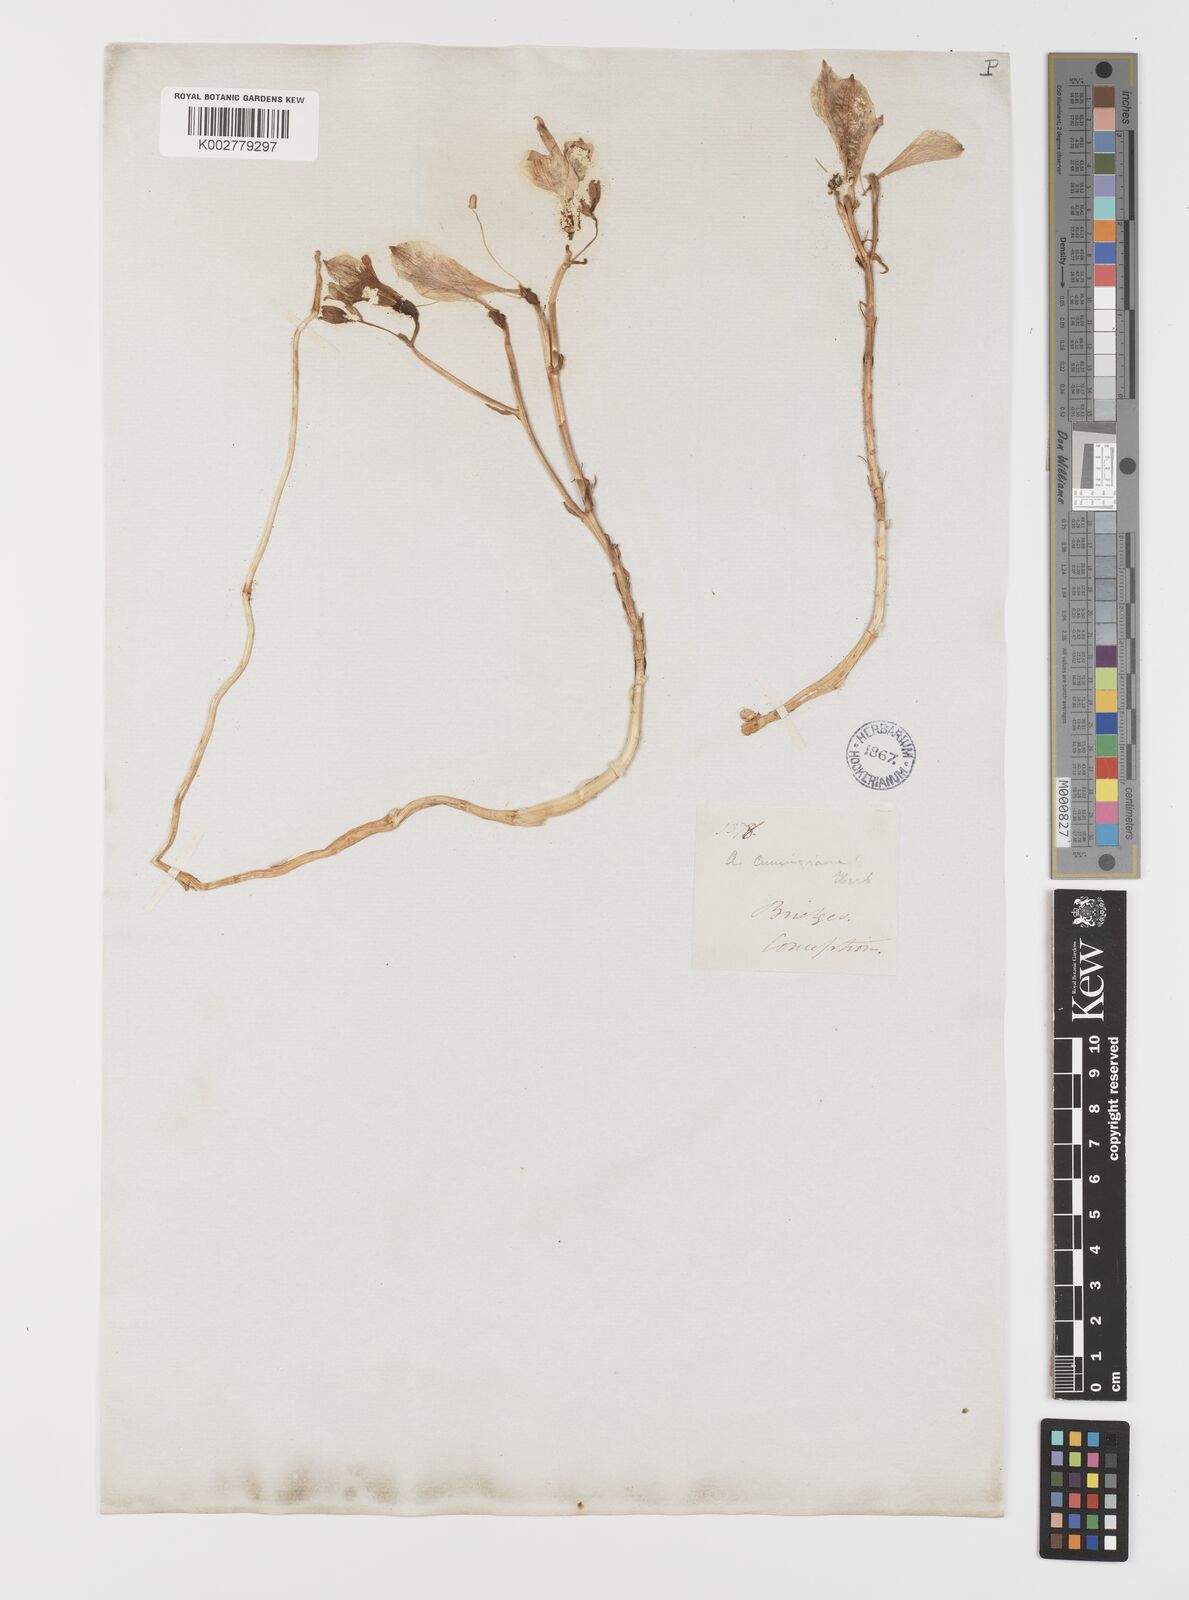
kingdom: Plantae
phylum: Tracheophyta
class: Liliopsida
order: Liliales
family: Alstroemeriaceae
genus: Alstroemeria
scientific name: Alstroemeria hookeri
